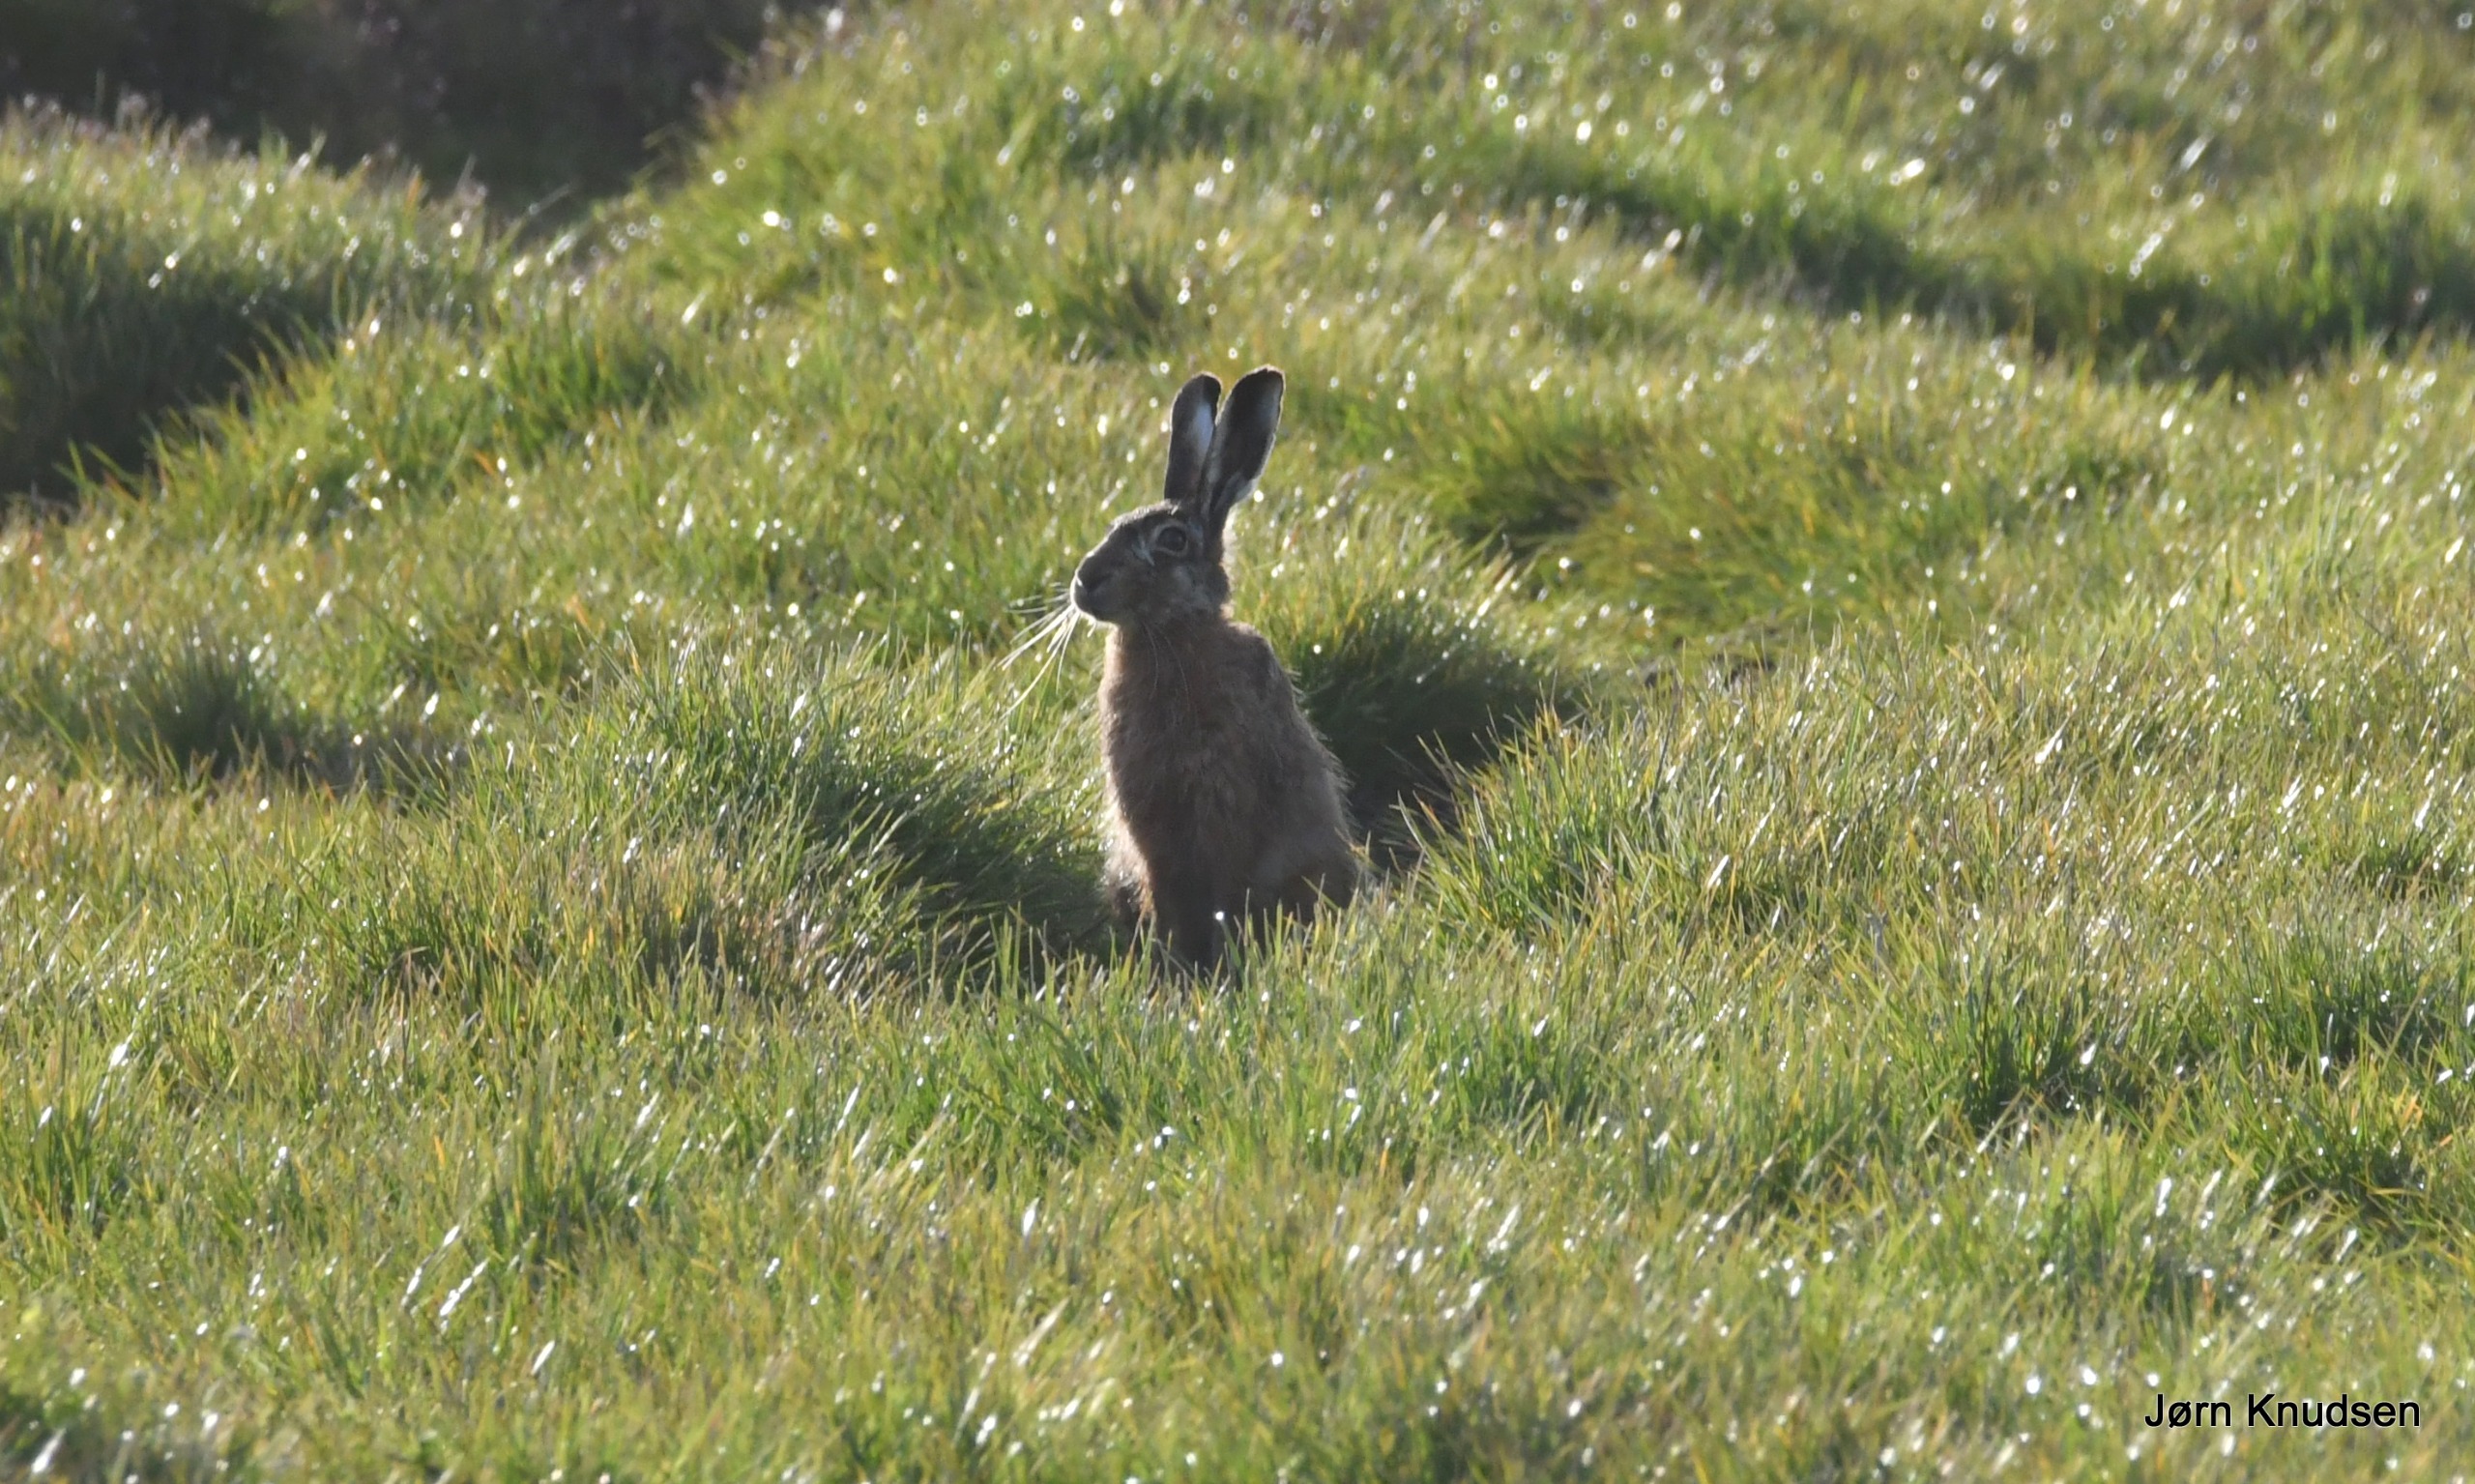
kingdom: Animalia
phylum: Chordata
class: Mammalia
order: Lagomorpha
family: Leporidae
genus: Lepus
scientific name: Lepus europaeus
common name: Hare
